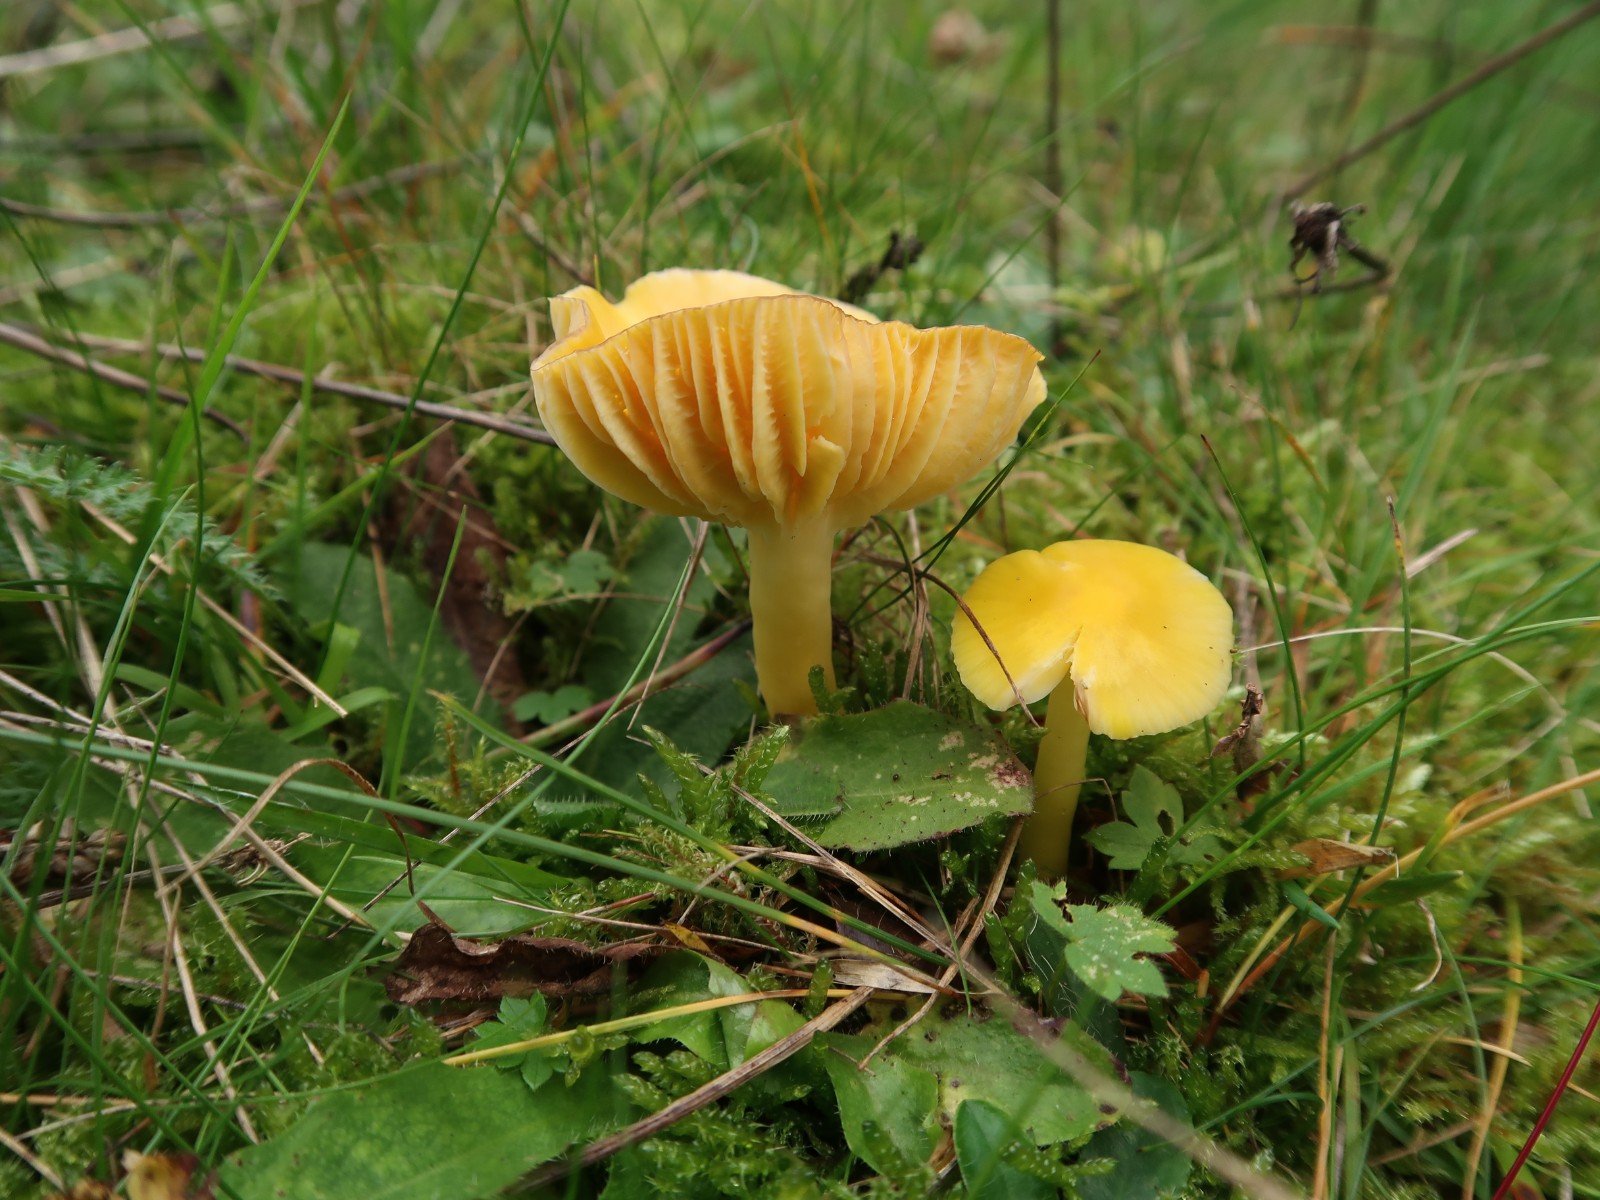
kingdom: Fungi
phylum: Basidiomycota
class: Agaricomycetes
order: Agaricales
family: Hygrophoraceae
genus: Hygrocybe
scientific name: Hygrocybe chlorophana
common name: gul vokshat
